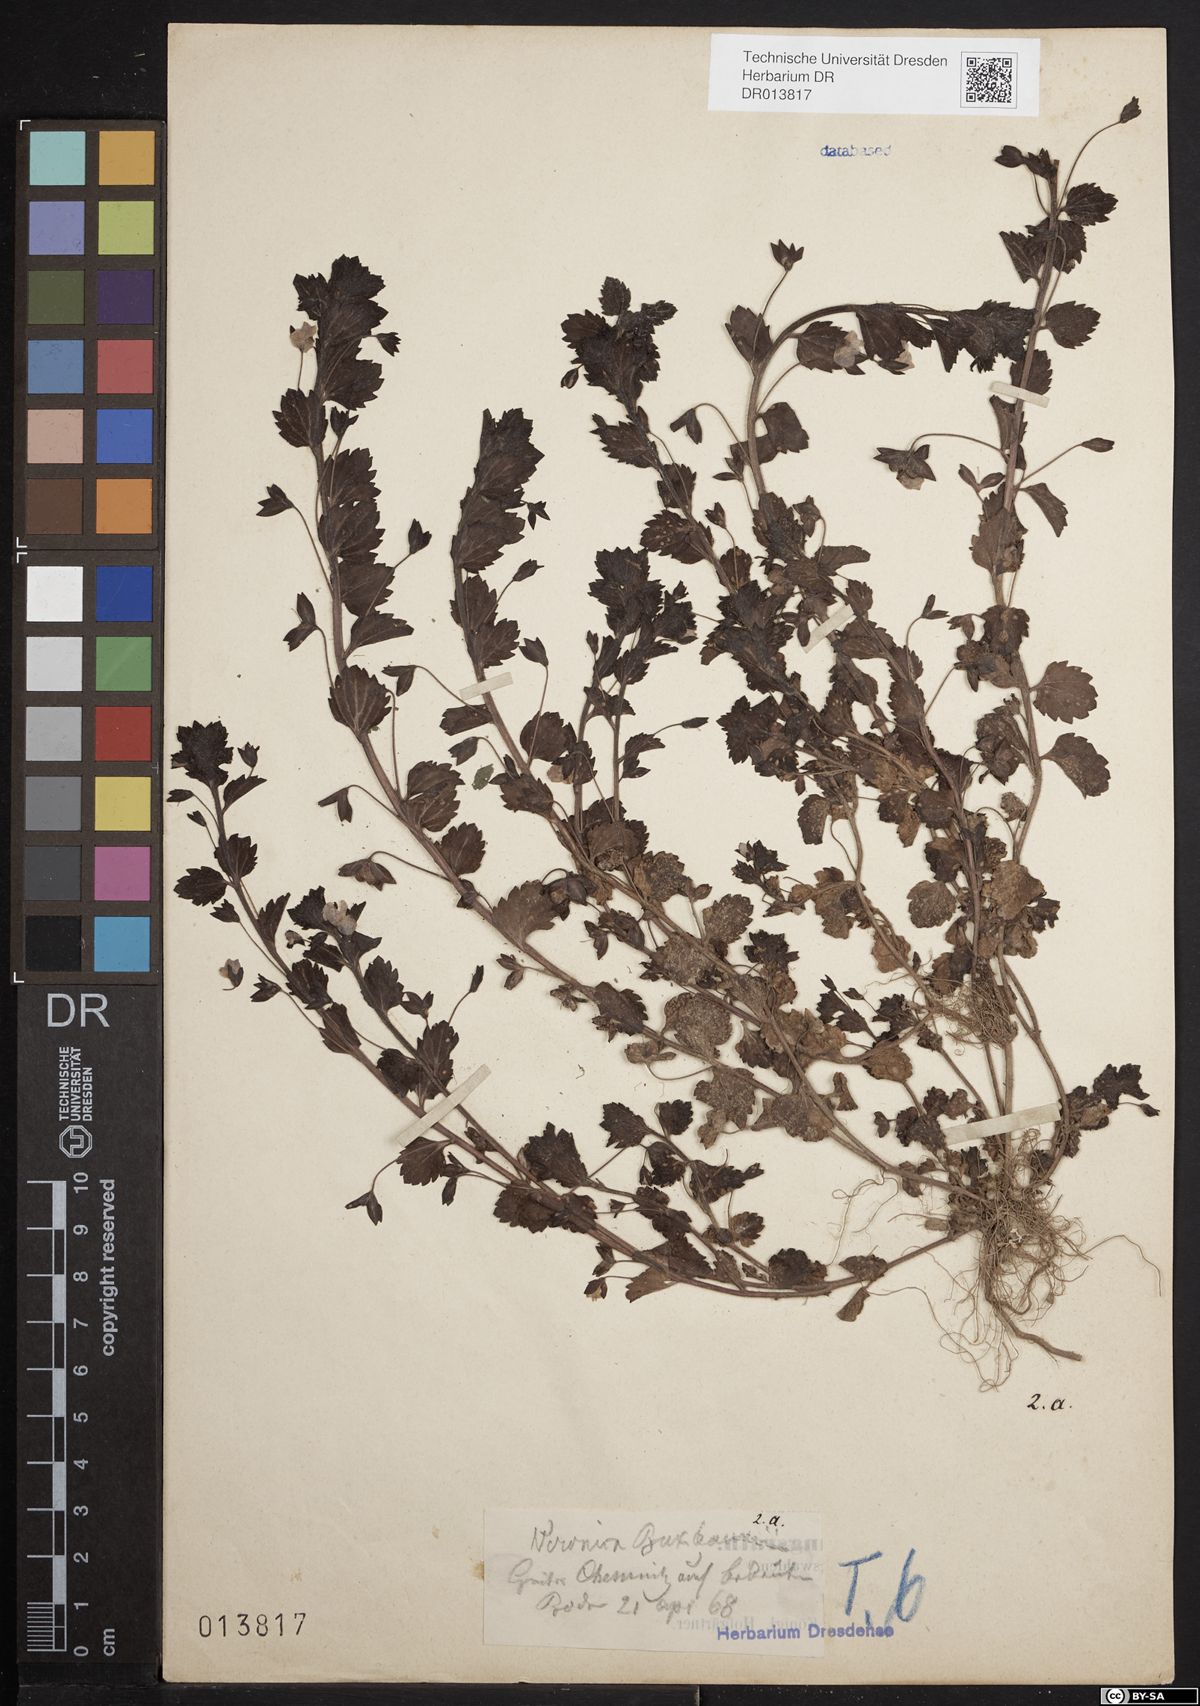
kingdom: Plantae
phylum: Tracheophyta
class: Magnoliopsida
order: Lamiales
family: Plantaginaceae
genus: Veronica
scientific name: Veronica persica
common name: Common field-speedwell
